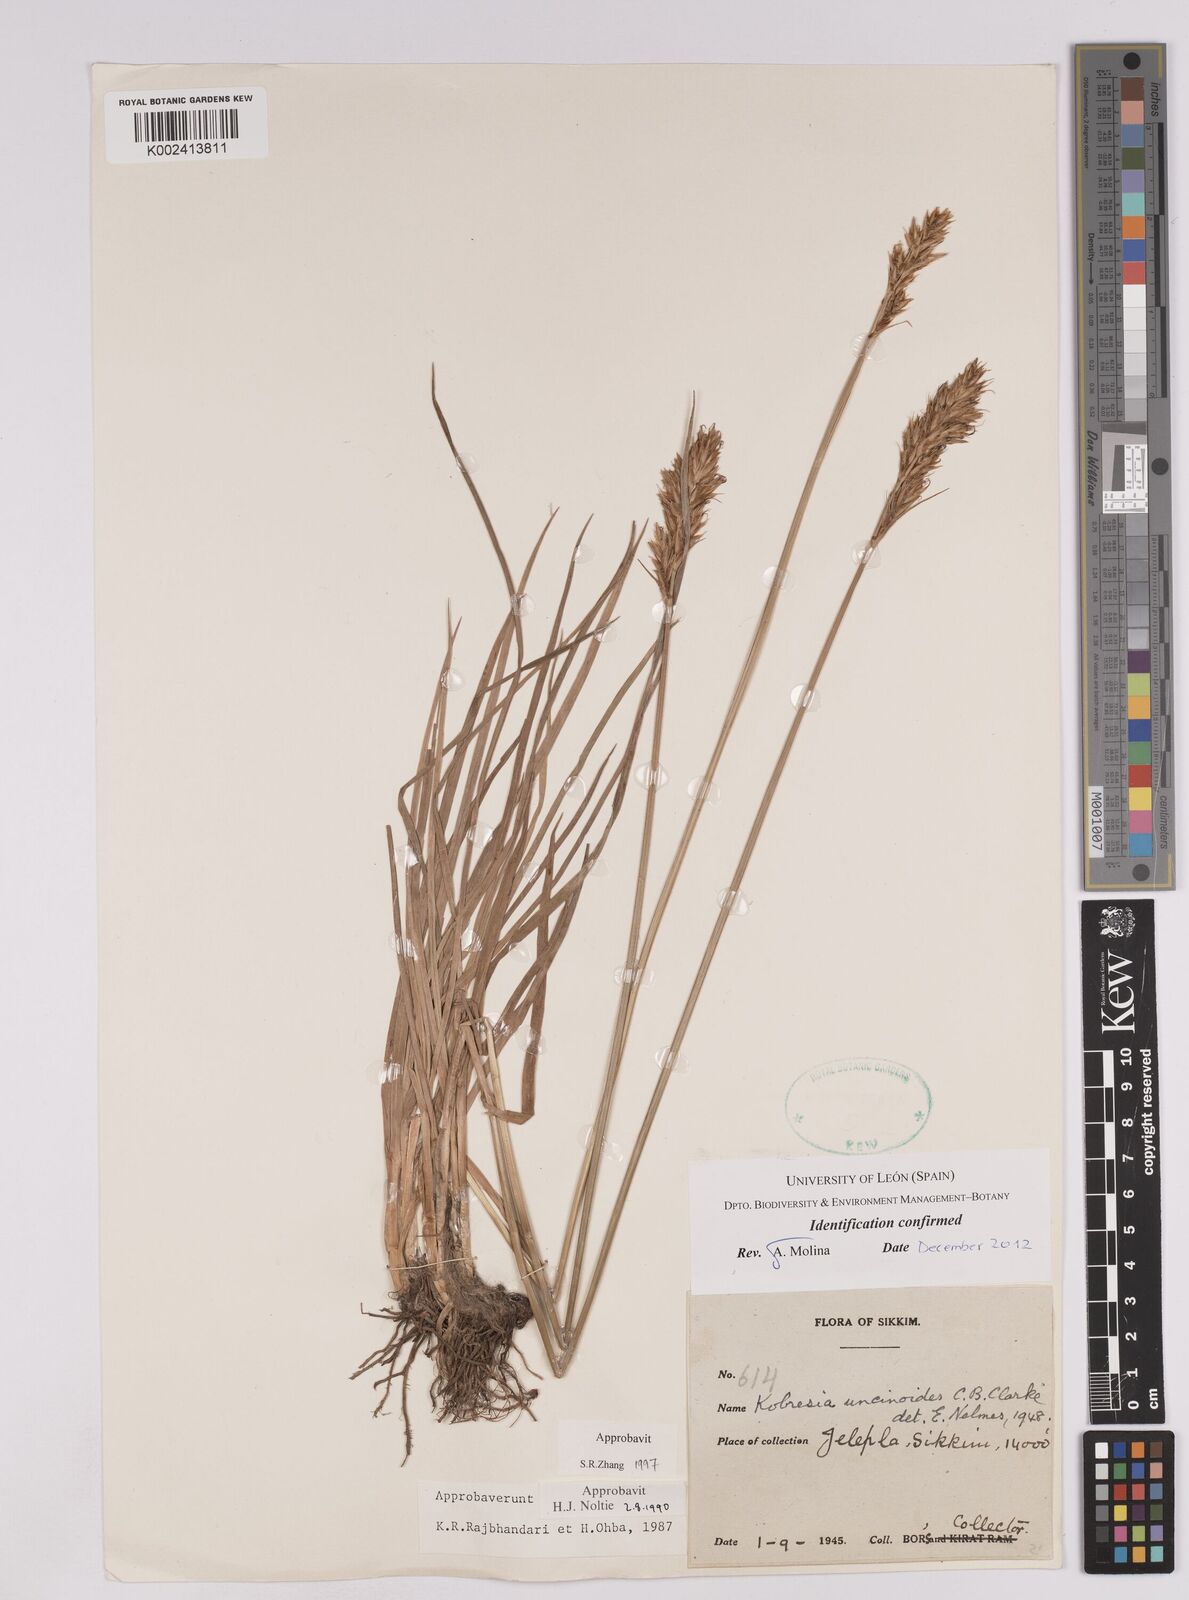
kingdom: Plantae
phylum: Tracheophyta
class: Liliopsida
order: Poales
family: Cyperaceae
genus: Carex
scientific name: Carex uncinioides
